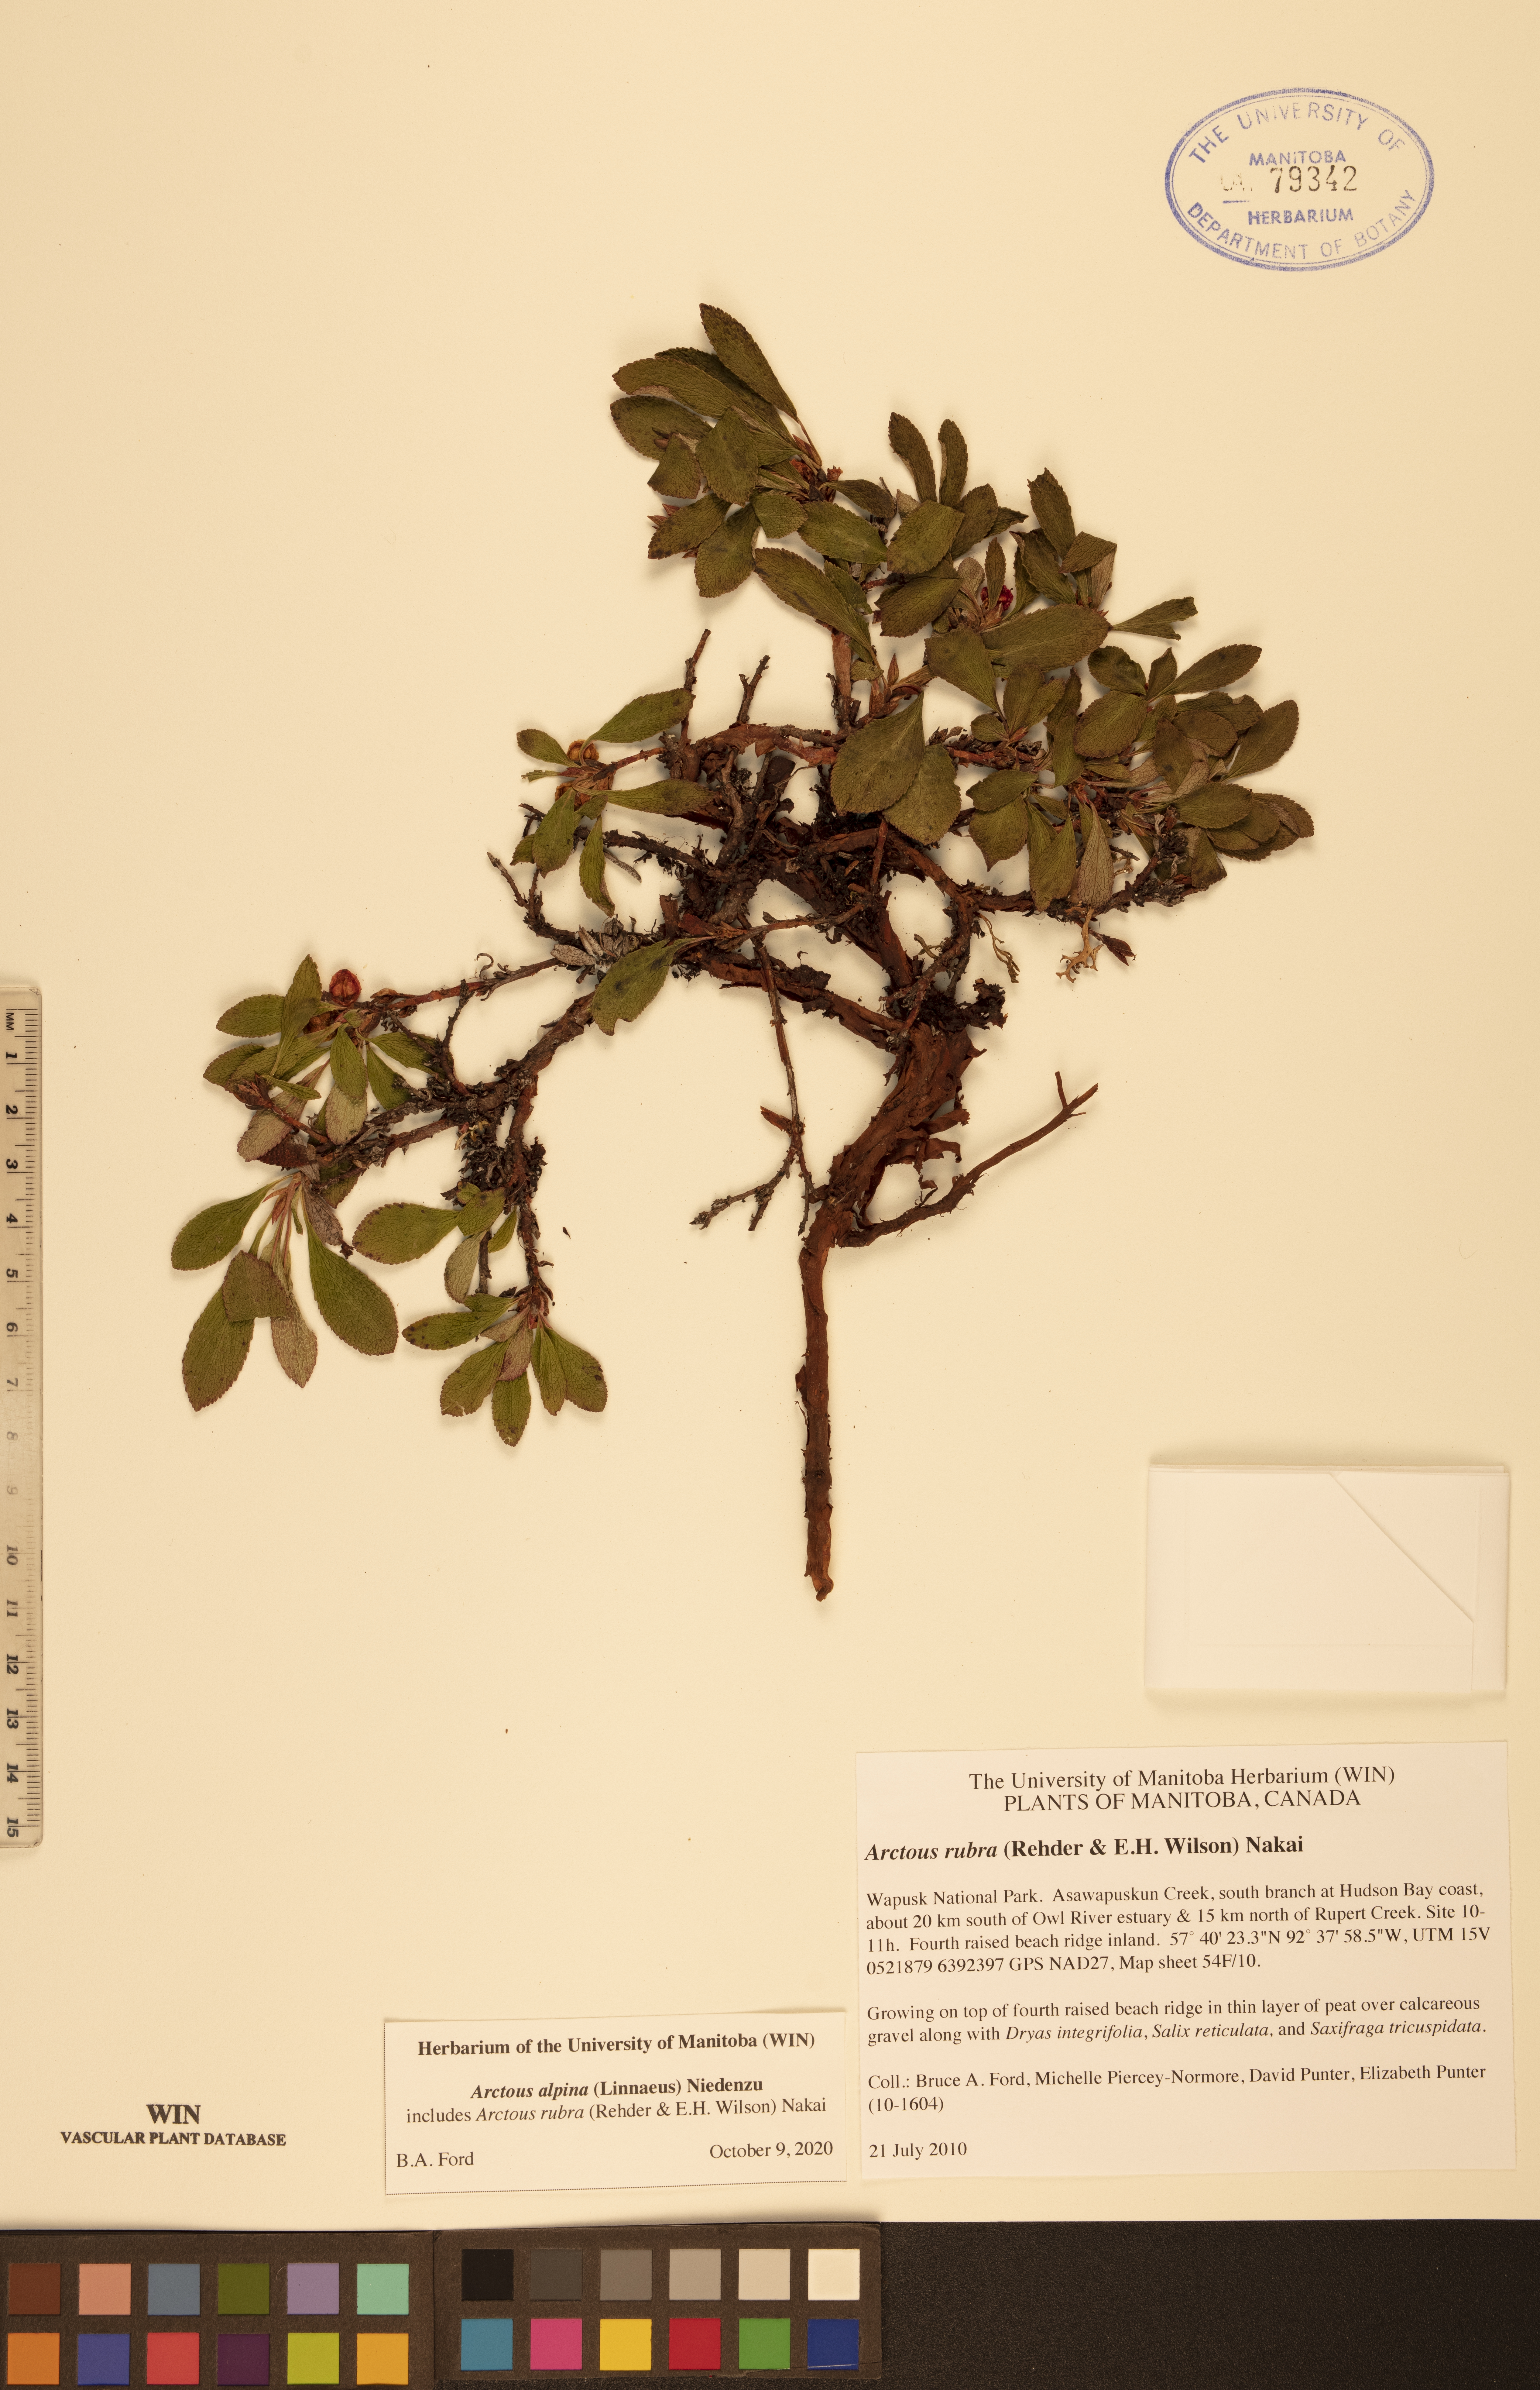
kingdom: Plantae
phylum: Tracheophyta
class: Magnoliopsida
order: Ericales
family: Ericaceae
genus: Arctostaphylos
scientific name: Arctostaphylos alpinus
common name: Alpine bearberry
